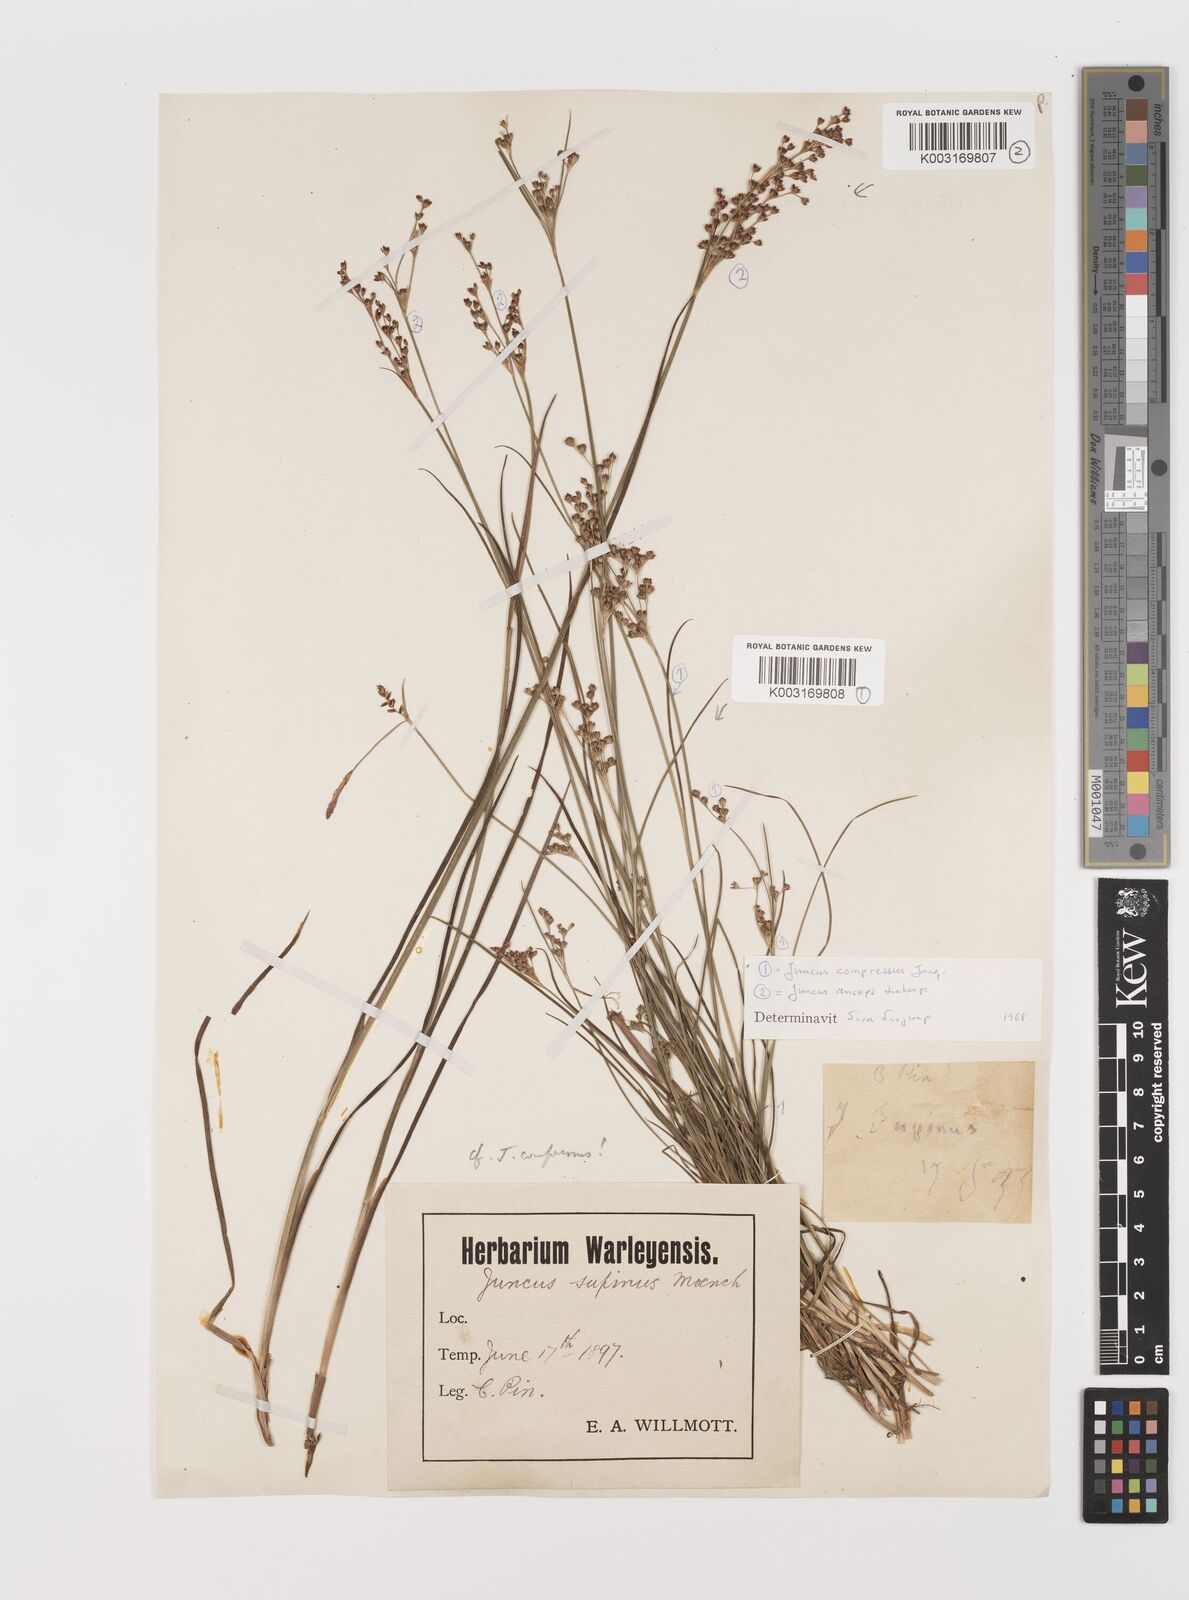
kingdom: Plantae
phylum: Tracheophyta
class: Liliopsida
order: Poales
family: Juncaceae
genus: Juncus
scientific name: Juncus anceps
